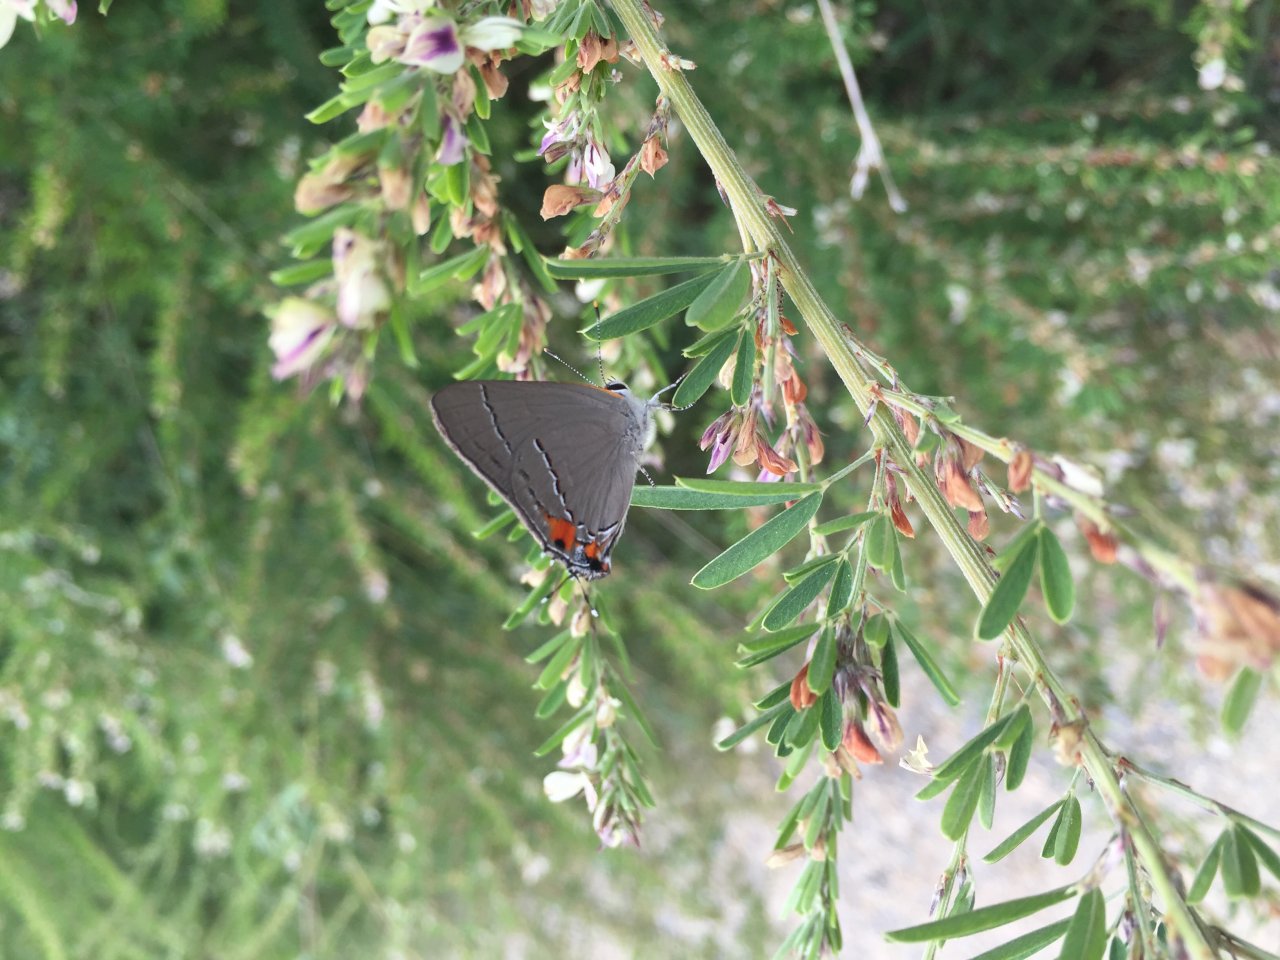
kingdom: Animalia
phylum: Arthropoda
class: Insecta
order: Lepidoptera
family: Lycaenidae
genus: Strymon
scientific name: Strymon melinus
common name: Gray Hairstreak
